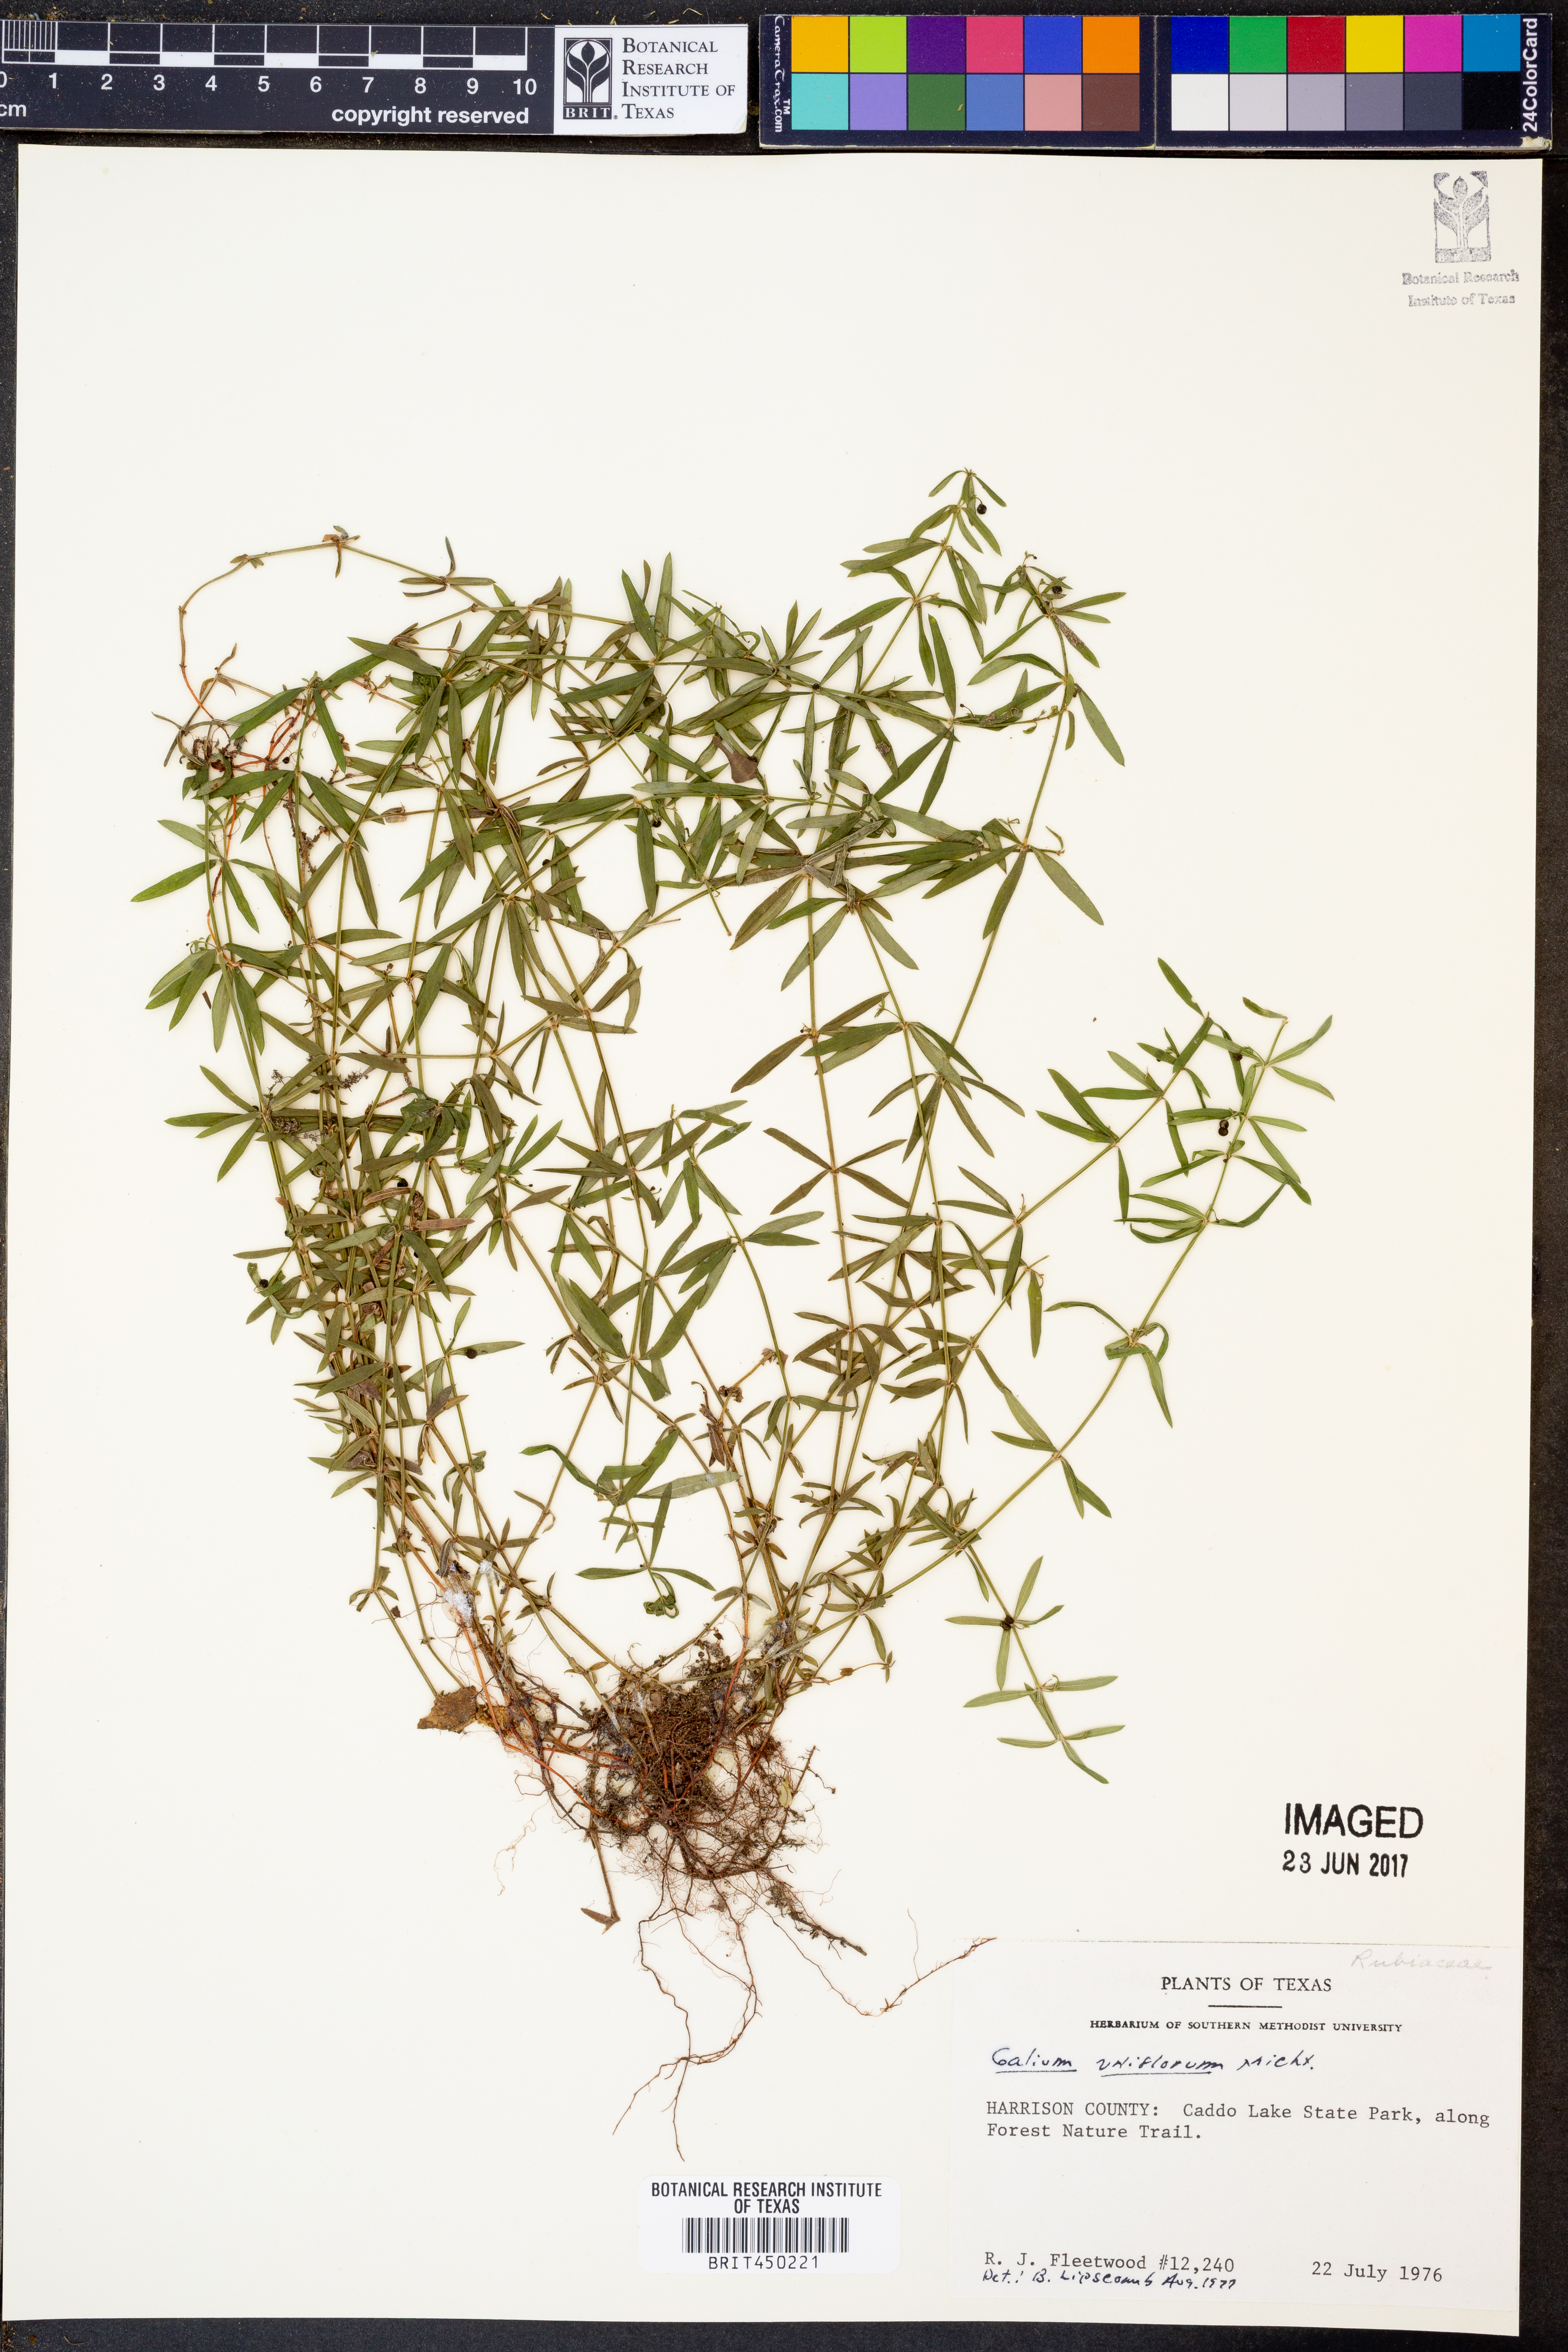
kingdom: Plantae
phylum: Tracheophyta
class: Magnoliopsida
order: Gentianales
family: Rubiaceae
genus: Galium
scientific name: Galium uniflorum
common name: One-flower bedstraw
